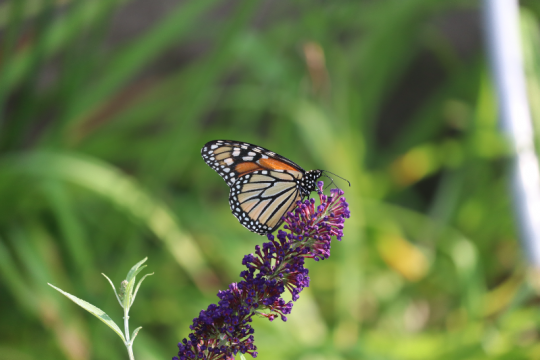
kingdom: Animalia
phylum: Arthropoda
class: Insecta
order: Lepidoptera
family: Nymphalidae
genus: Danaus
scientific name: Danaus plexippus
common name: Monarch
